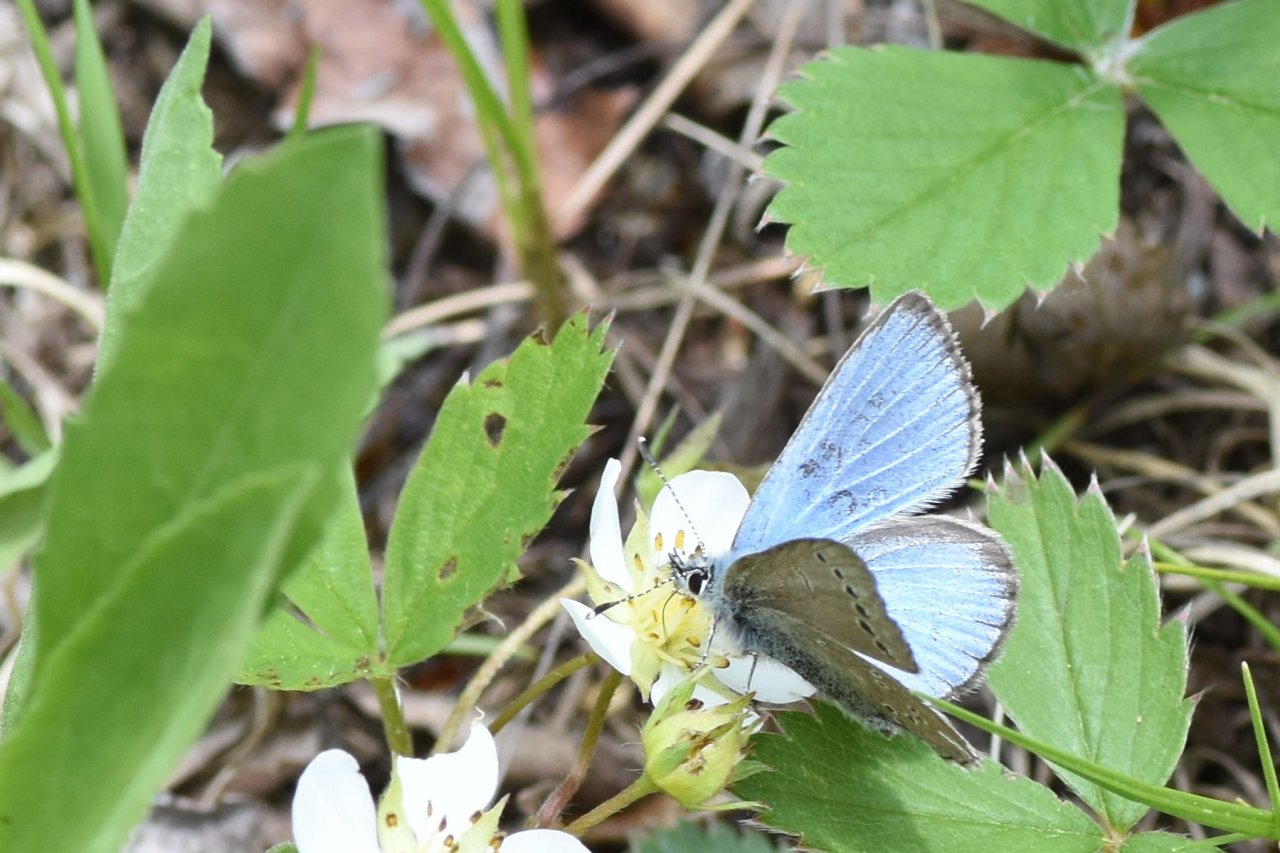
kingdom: Animalia
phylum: Arthropoda
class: Insecta
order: Lepidoptera
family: Lycaenidae
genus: Glaucopsyche
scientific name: Glaucopsyche lygdamus
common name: Silvery Blue
